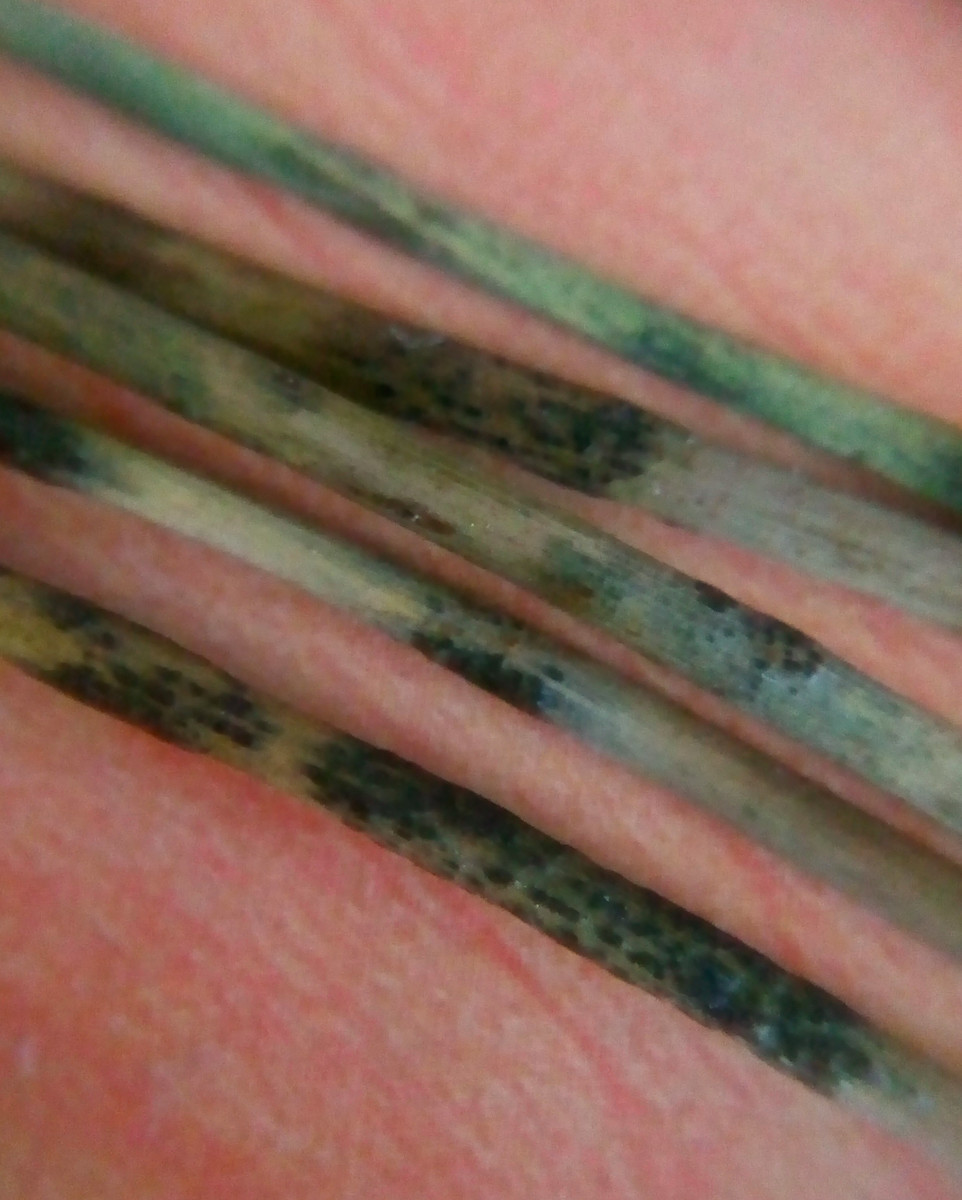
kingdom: Fungi
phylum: Ascomycota
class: Sordariomycetes
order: Phyllachorales
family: Phyllachoraceae
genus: Phyllachora
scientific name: Phyllachora junci
